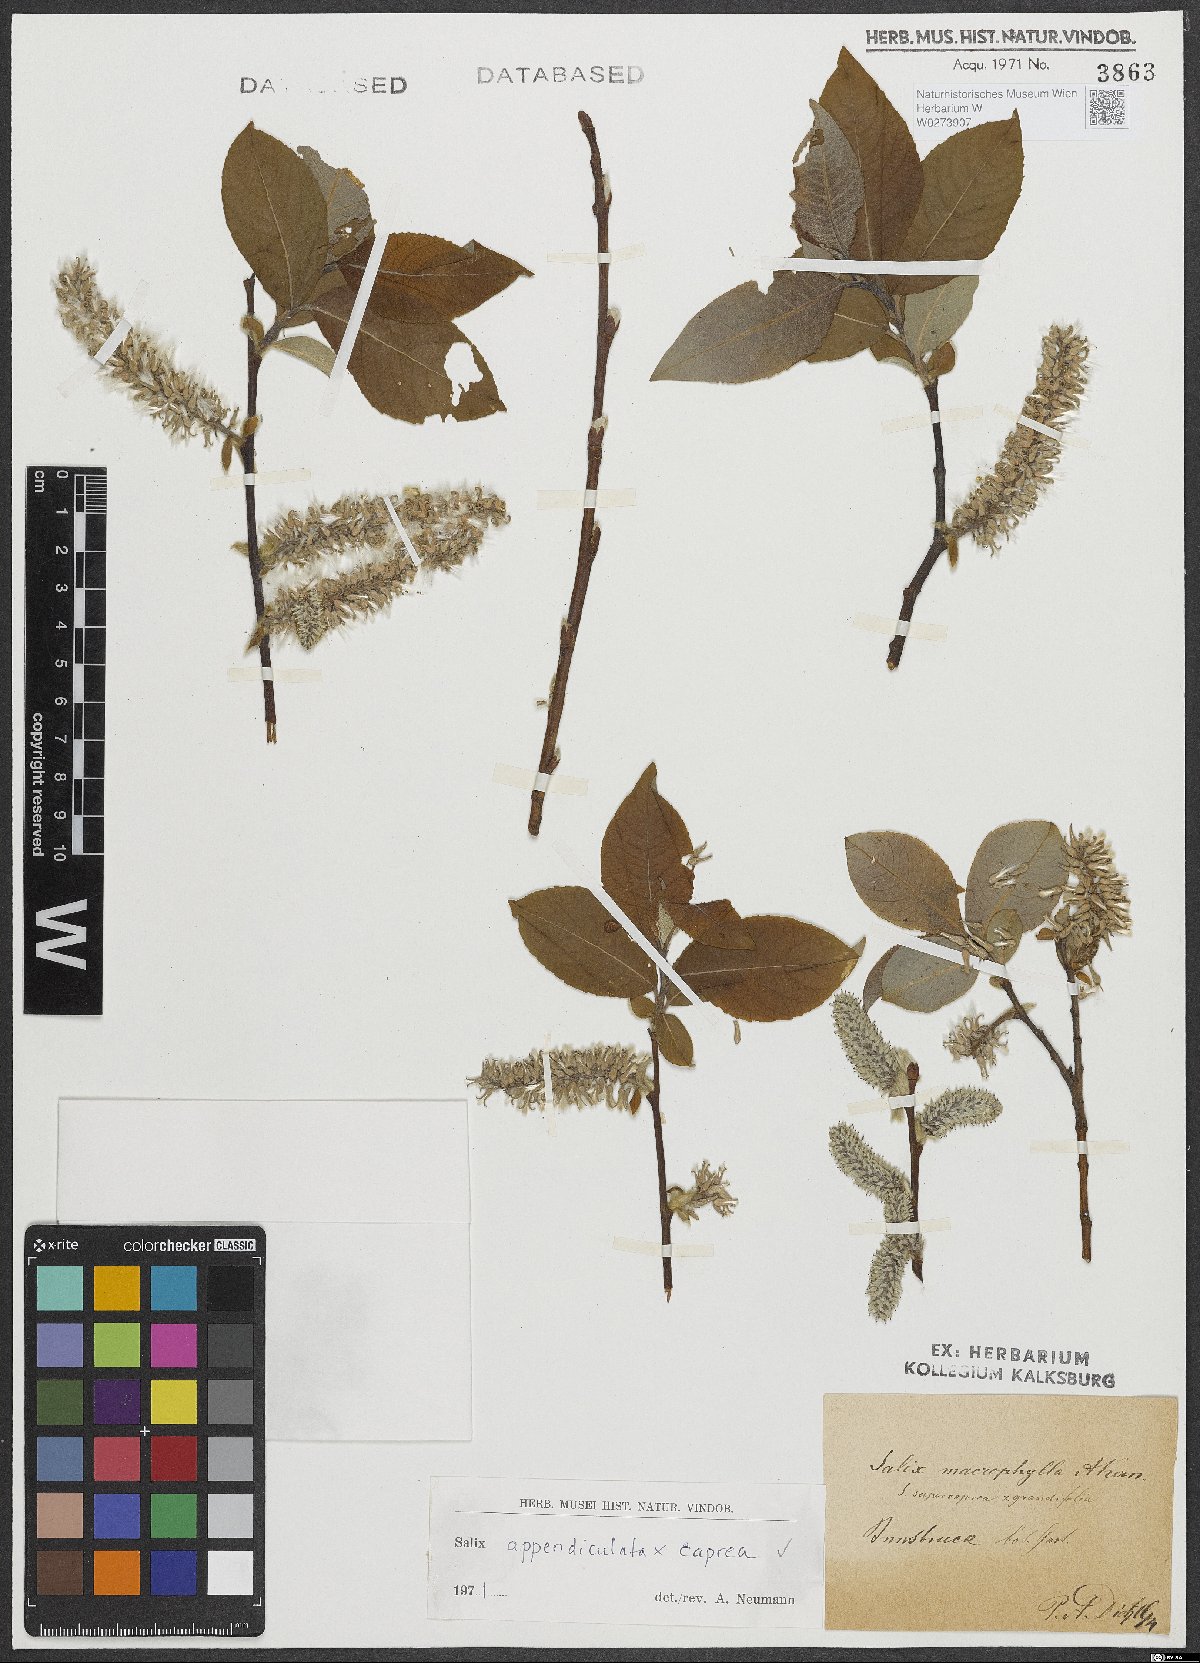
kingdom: Plantae
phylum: Tracheophyta
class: Magnoliopsida
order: Malpighiales
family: Salicaceae
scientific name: Salicaceae
